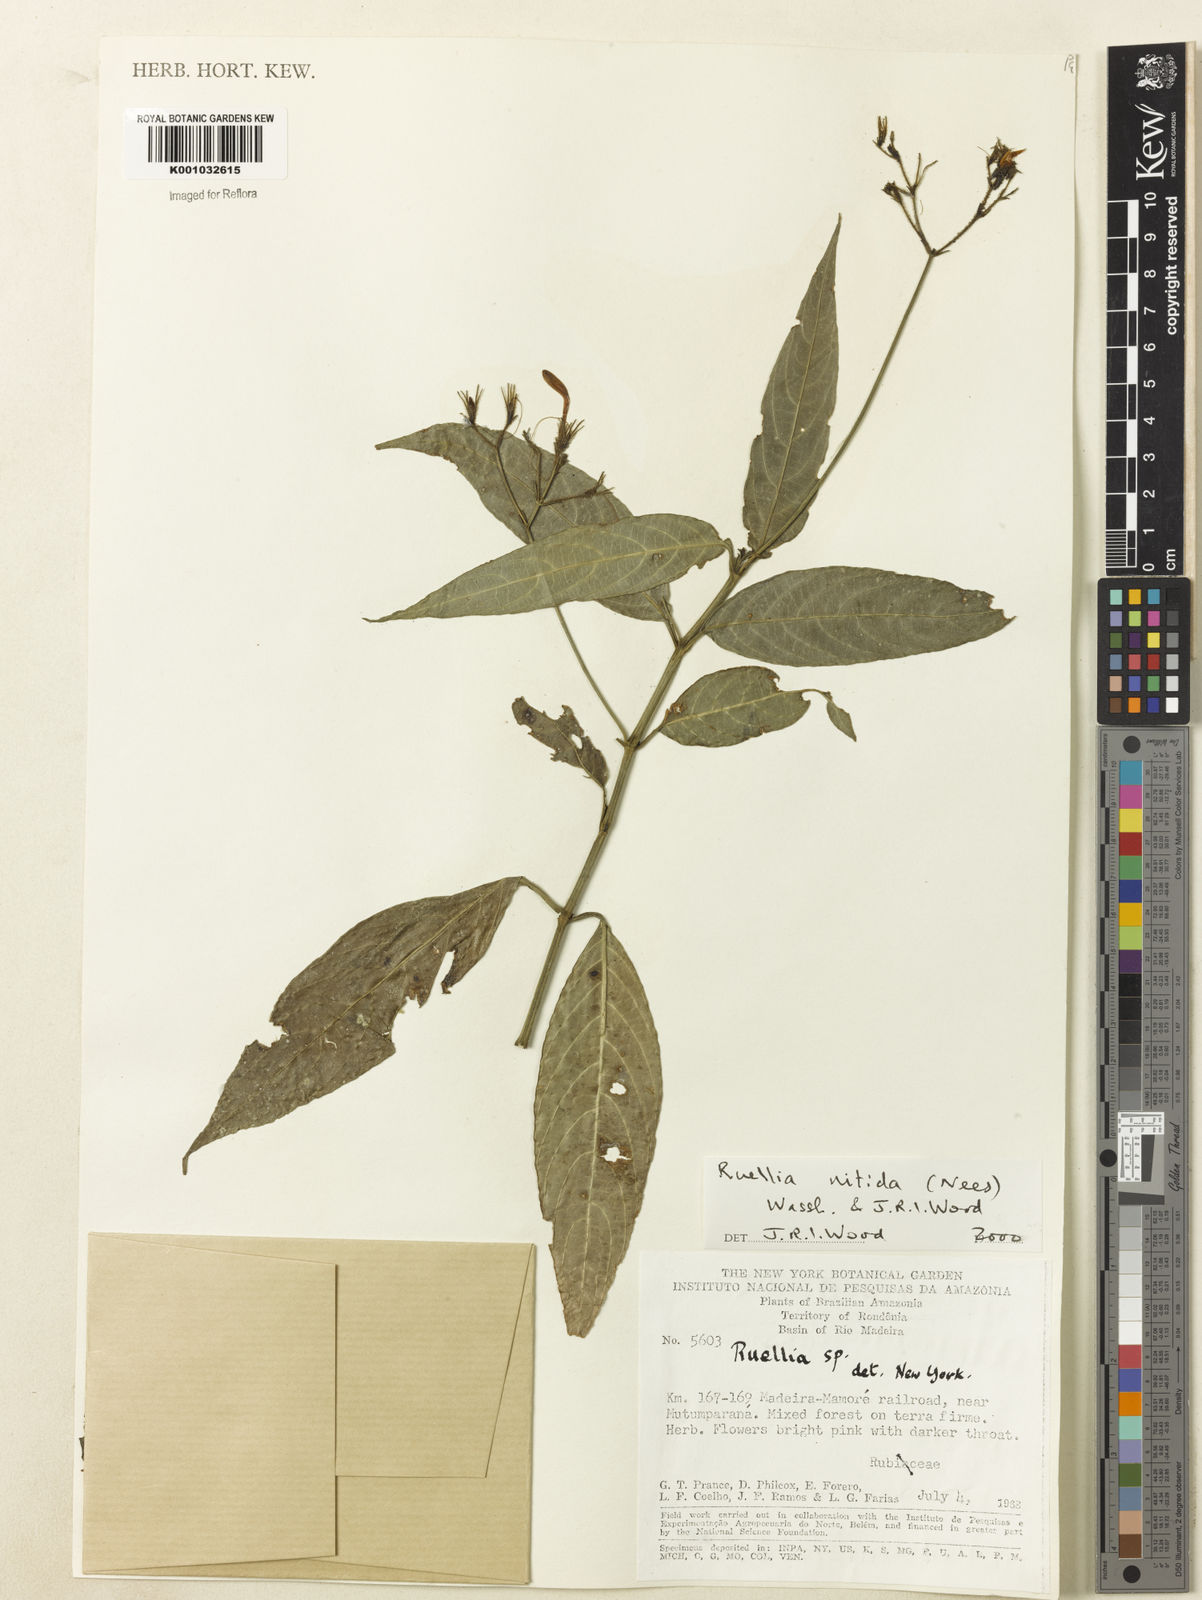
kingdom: Plantae
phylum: Tracheophyta
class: Magnoliopsida
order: Lamiales
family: Acanthaceae
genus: Ruellia
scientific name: Ruellia nitida
